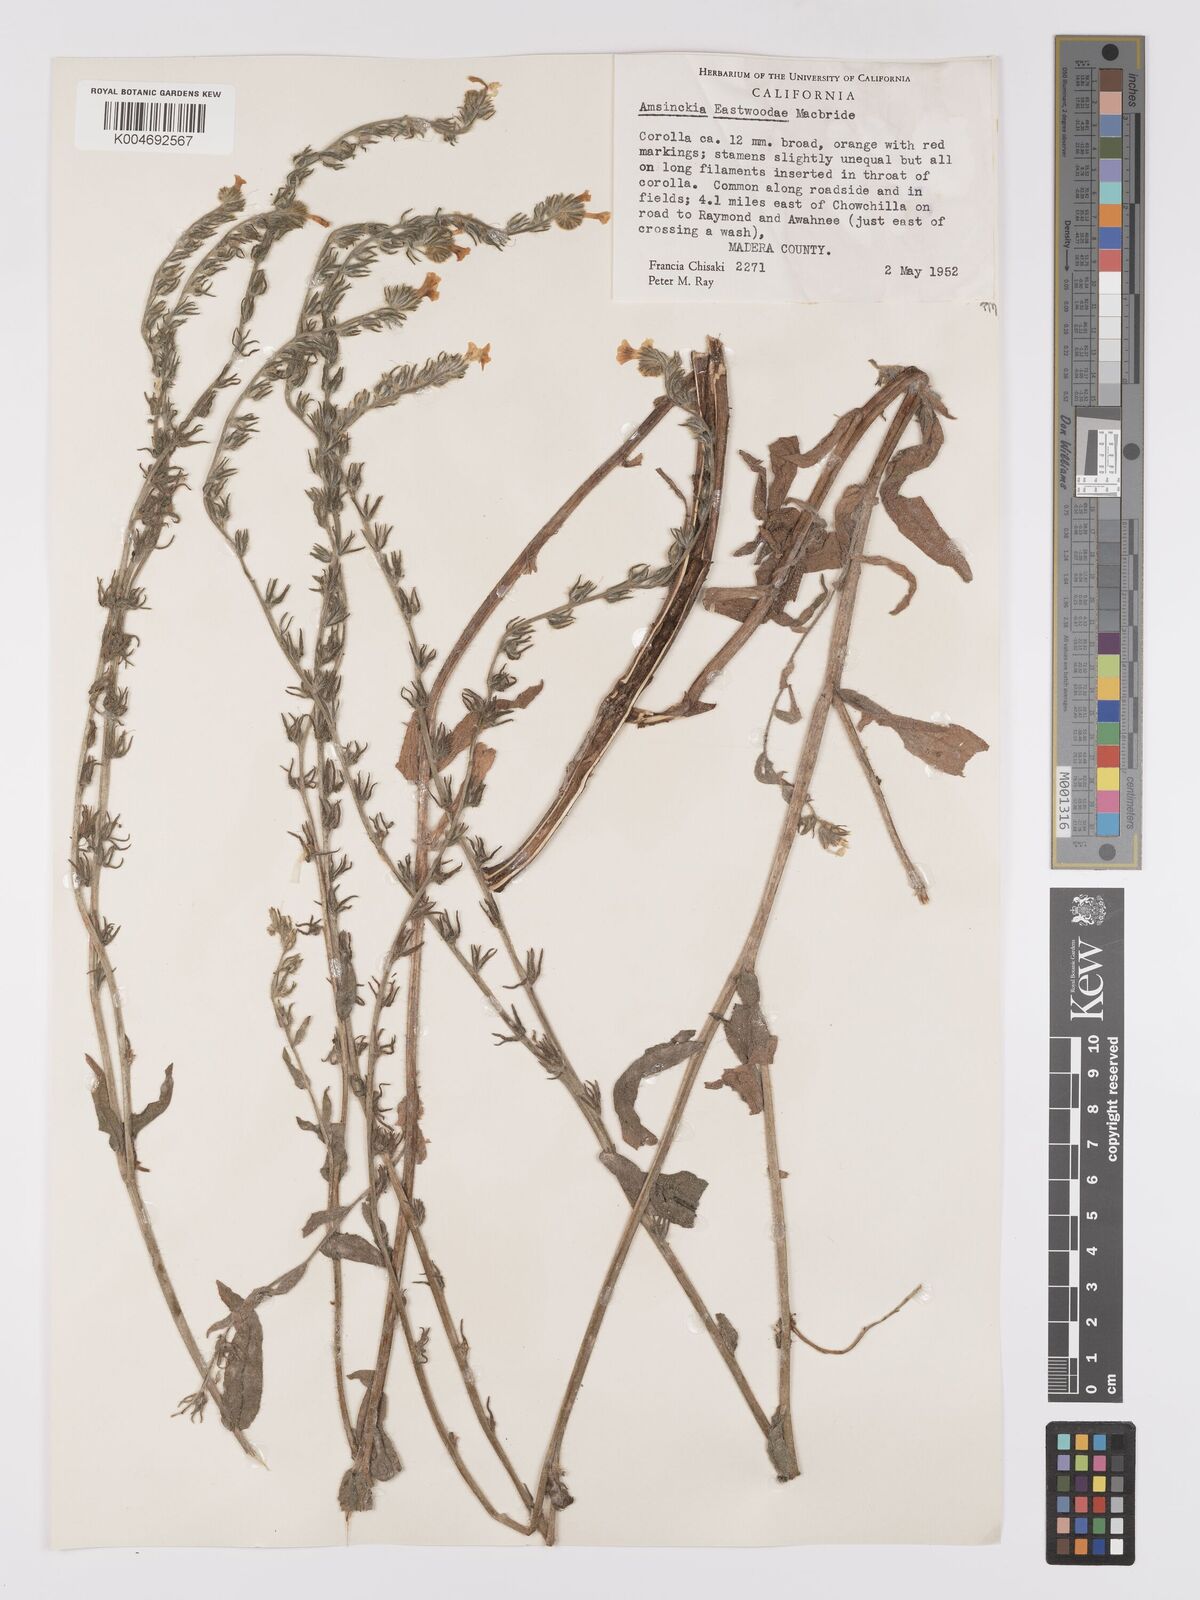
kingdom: Plantae
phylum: Tracheophyta
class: Magnoliopsida
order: Boraginales
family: Boraginaceae
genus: Amsinckia
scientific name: Amsinckia eastwoodiae
